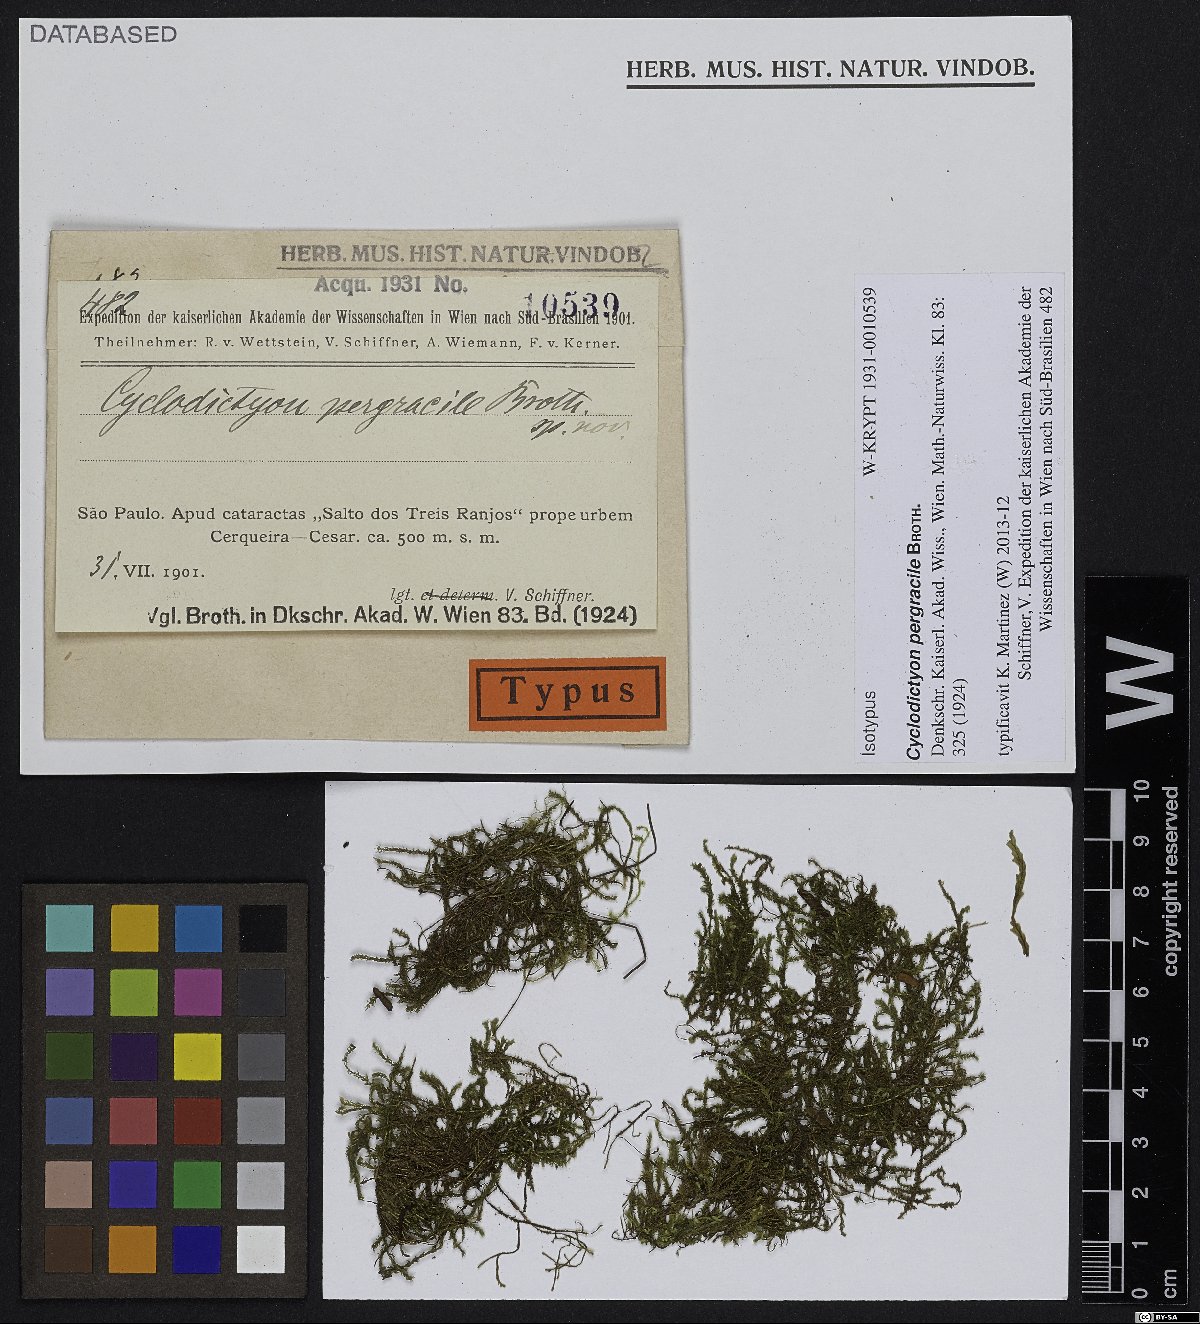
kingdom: Plantae
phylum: Bryophyta
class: Bryopsida
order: Hookeriales
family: Pilotrichaceae
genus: Cyclodictyon
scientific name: Cyclodictyon pergracile
